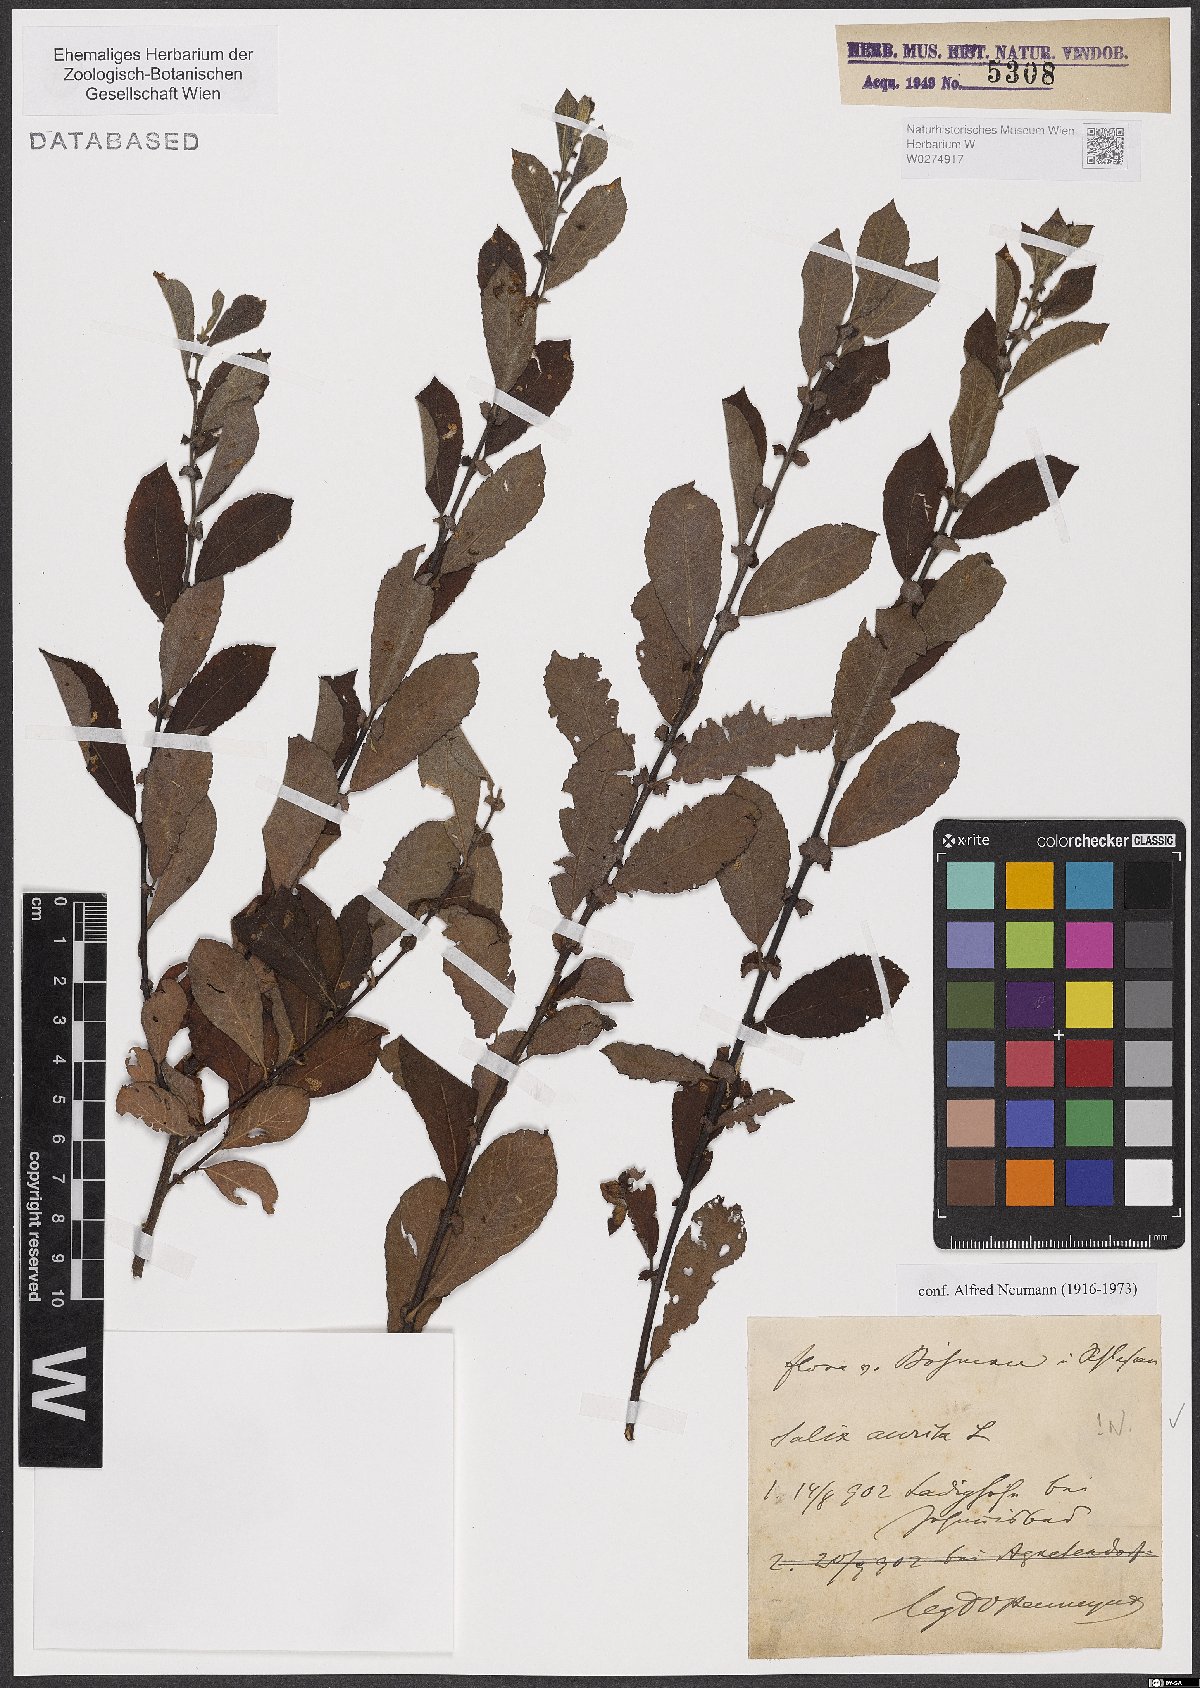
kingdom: Plantae
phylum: Tracheophyta
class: Magnoliopsida
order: Malpighiales
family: Salicaceae
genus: Salix
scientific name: Salix aurita
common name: Eared willow
